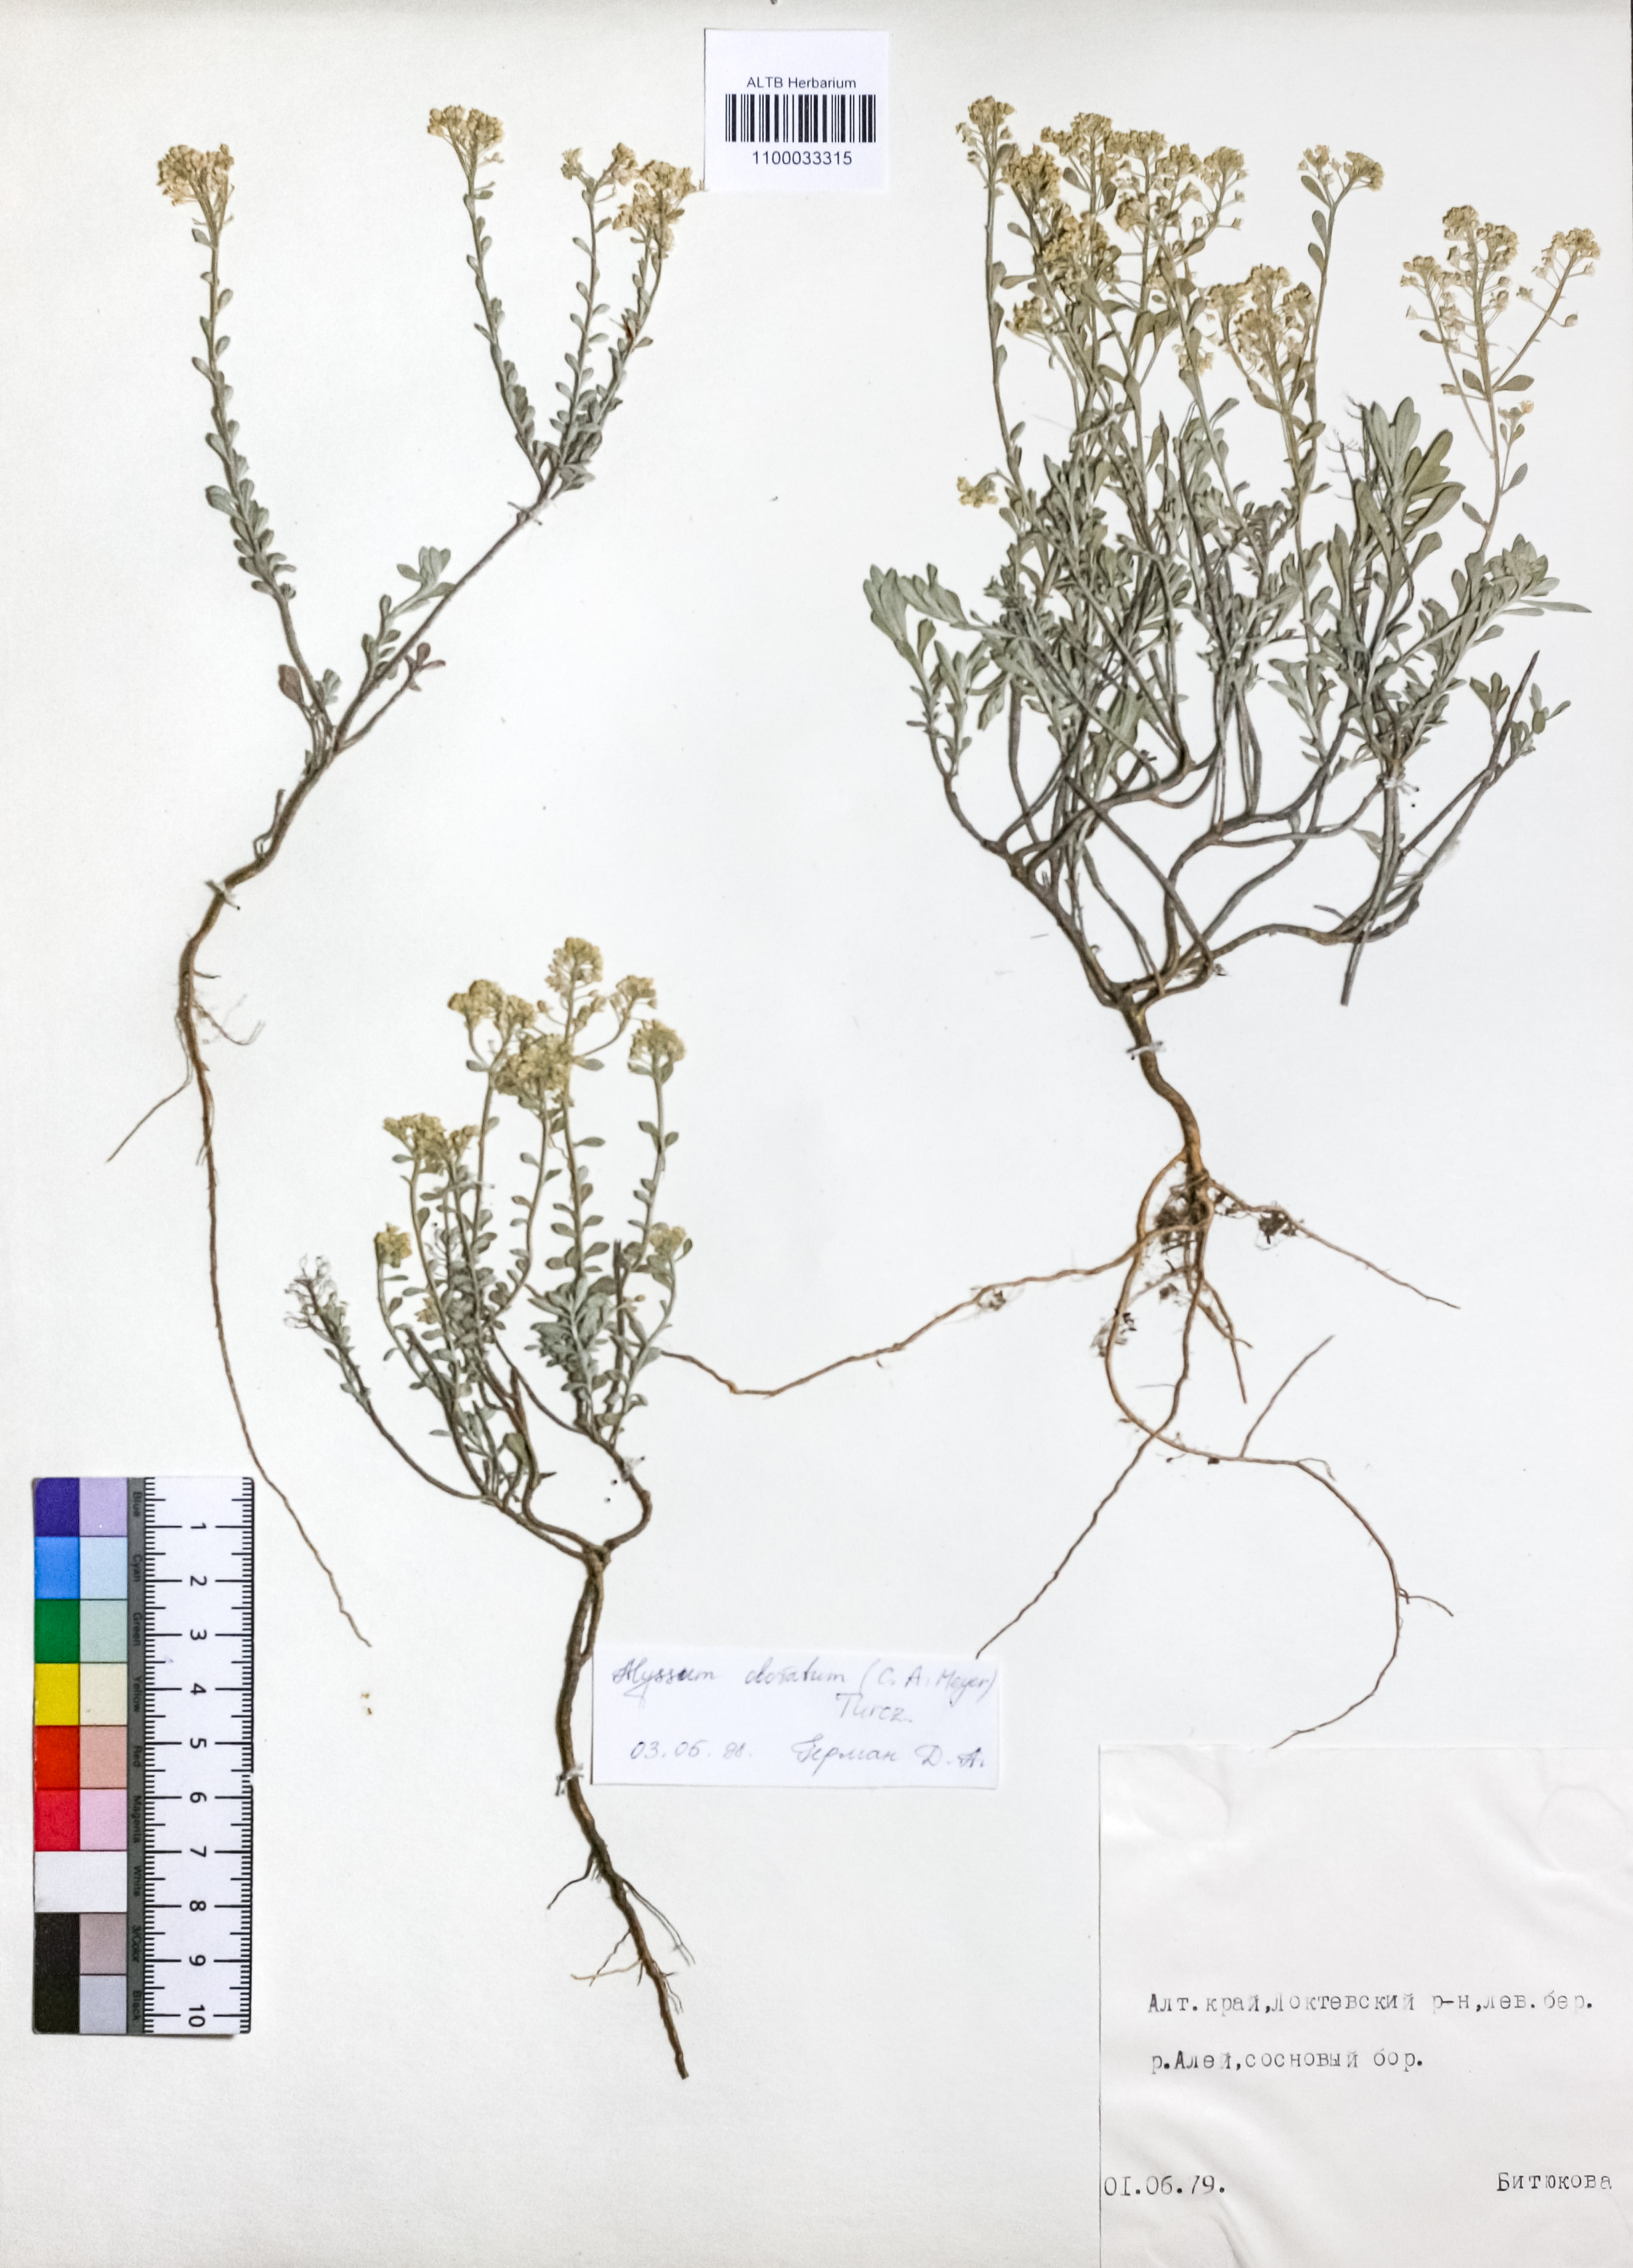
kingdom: Plantae
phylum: Tracheophyta
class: Magnoliopsida
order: Brassicales
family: Brassicaceae
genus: Odontarrhena
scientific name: Odontarrhena obovata
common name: American alyssum
